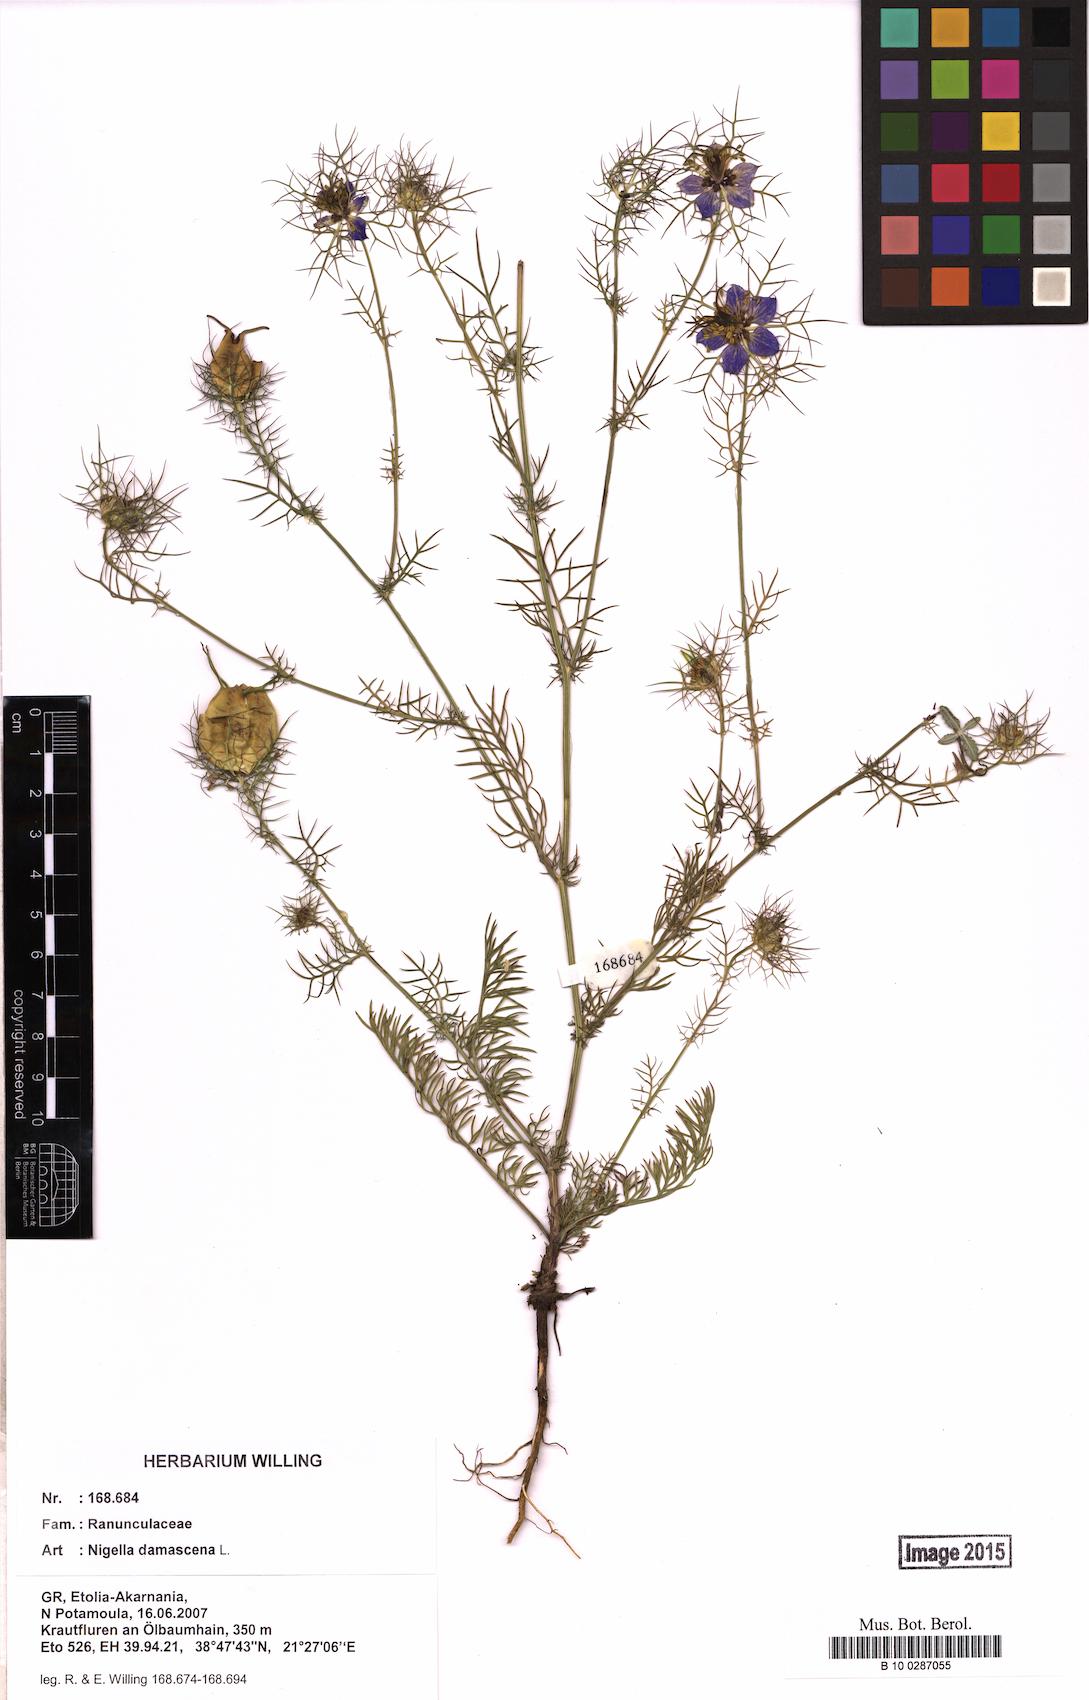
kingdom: Plantae
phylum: Tracheophyta
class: Magnoliopsida
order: Ranunculales
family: Ranunculaceae
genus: Nigella
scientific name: Nigella damascena
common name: Love-in-a-mist
